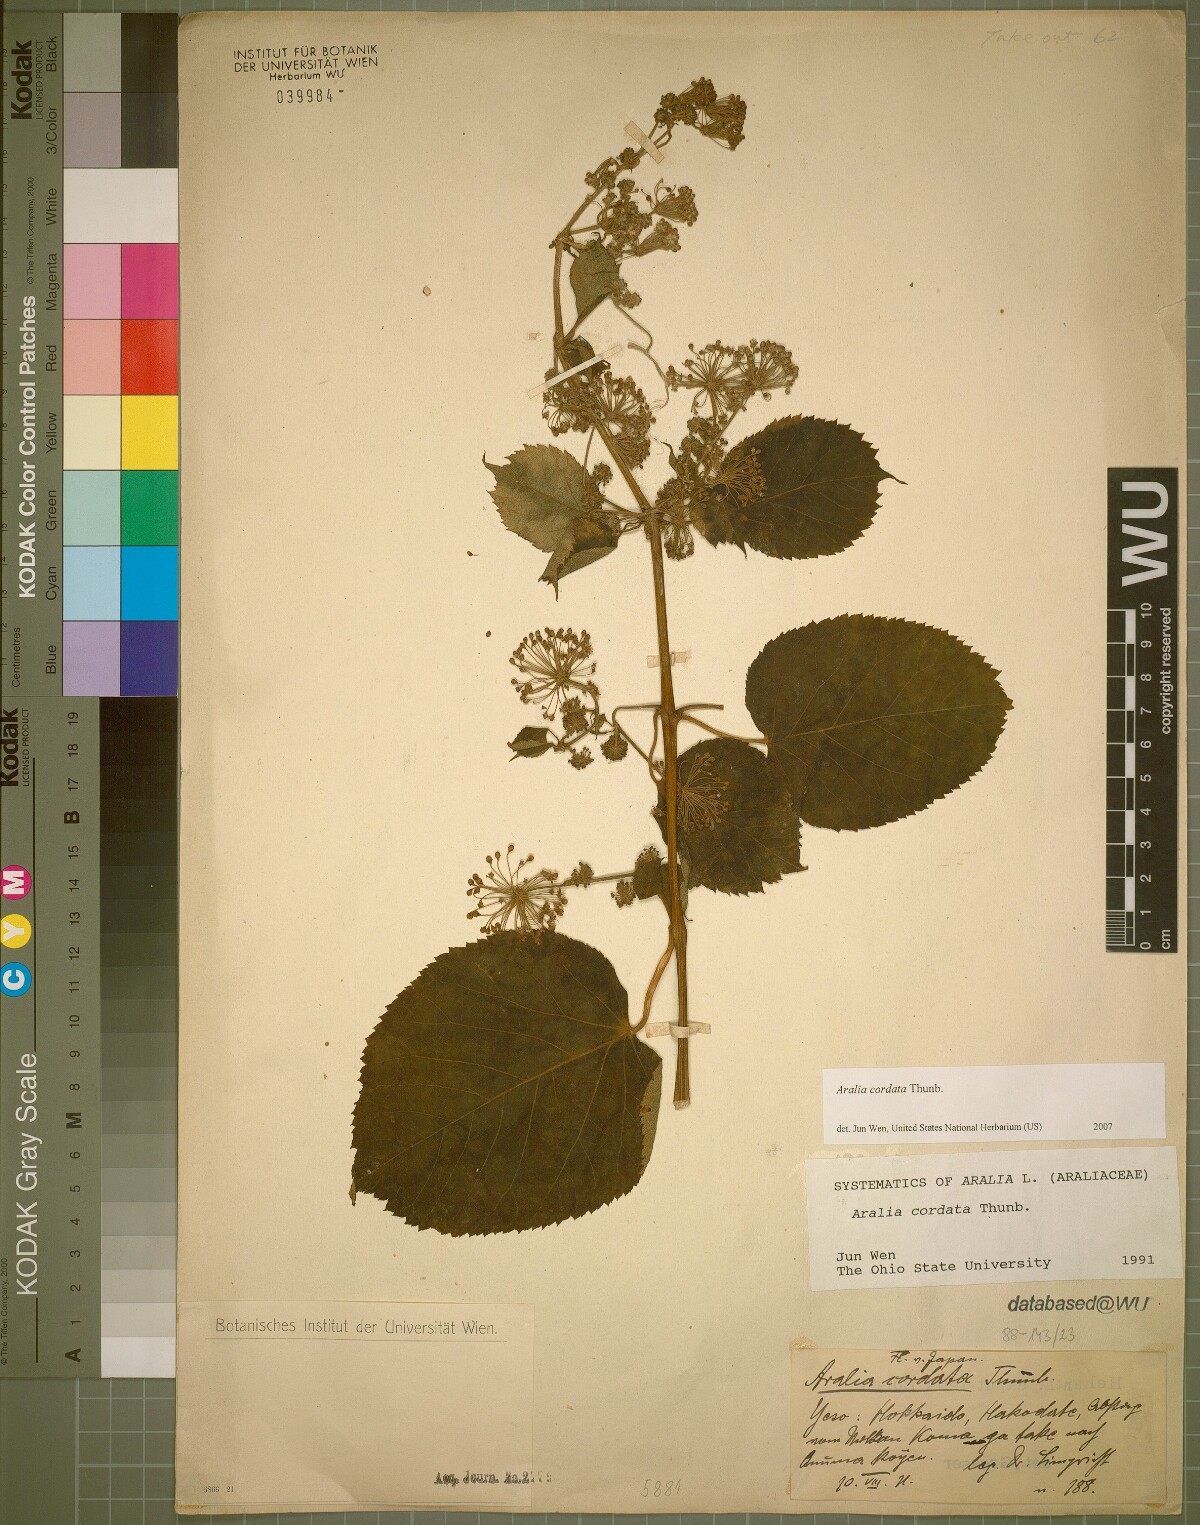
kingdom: Plantae
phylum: Tracheophyta
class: Magnoliopsida
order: Apiales
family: Araliaceae
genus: Aralia
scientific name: Aralia cordata
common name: Udo
